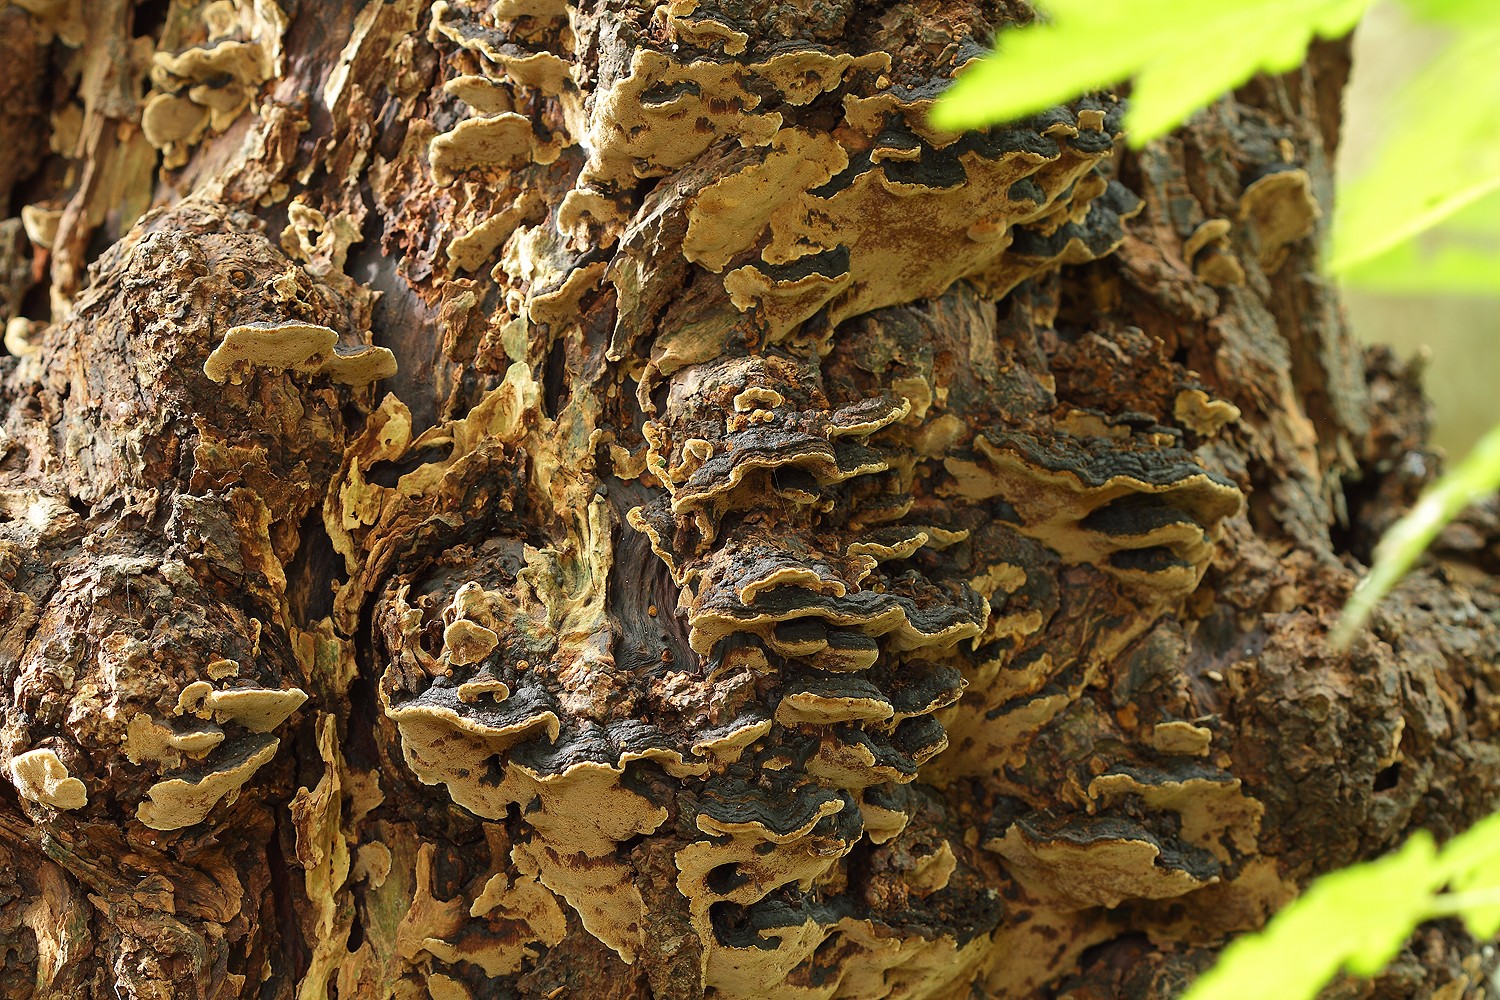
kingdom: Fungi
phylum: Basidiomycota
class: Agaricomycetes
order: Hymenochaetales
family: Hymenochaetaceae
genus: Phellinopsis
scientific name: Phellinopsis conchata
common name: pile-ildporesvamp
